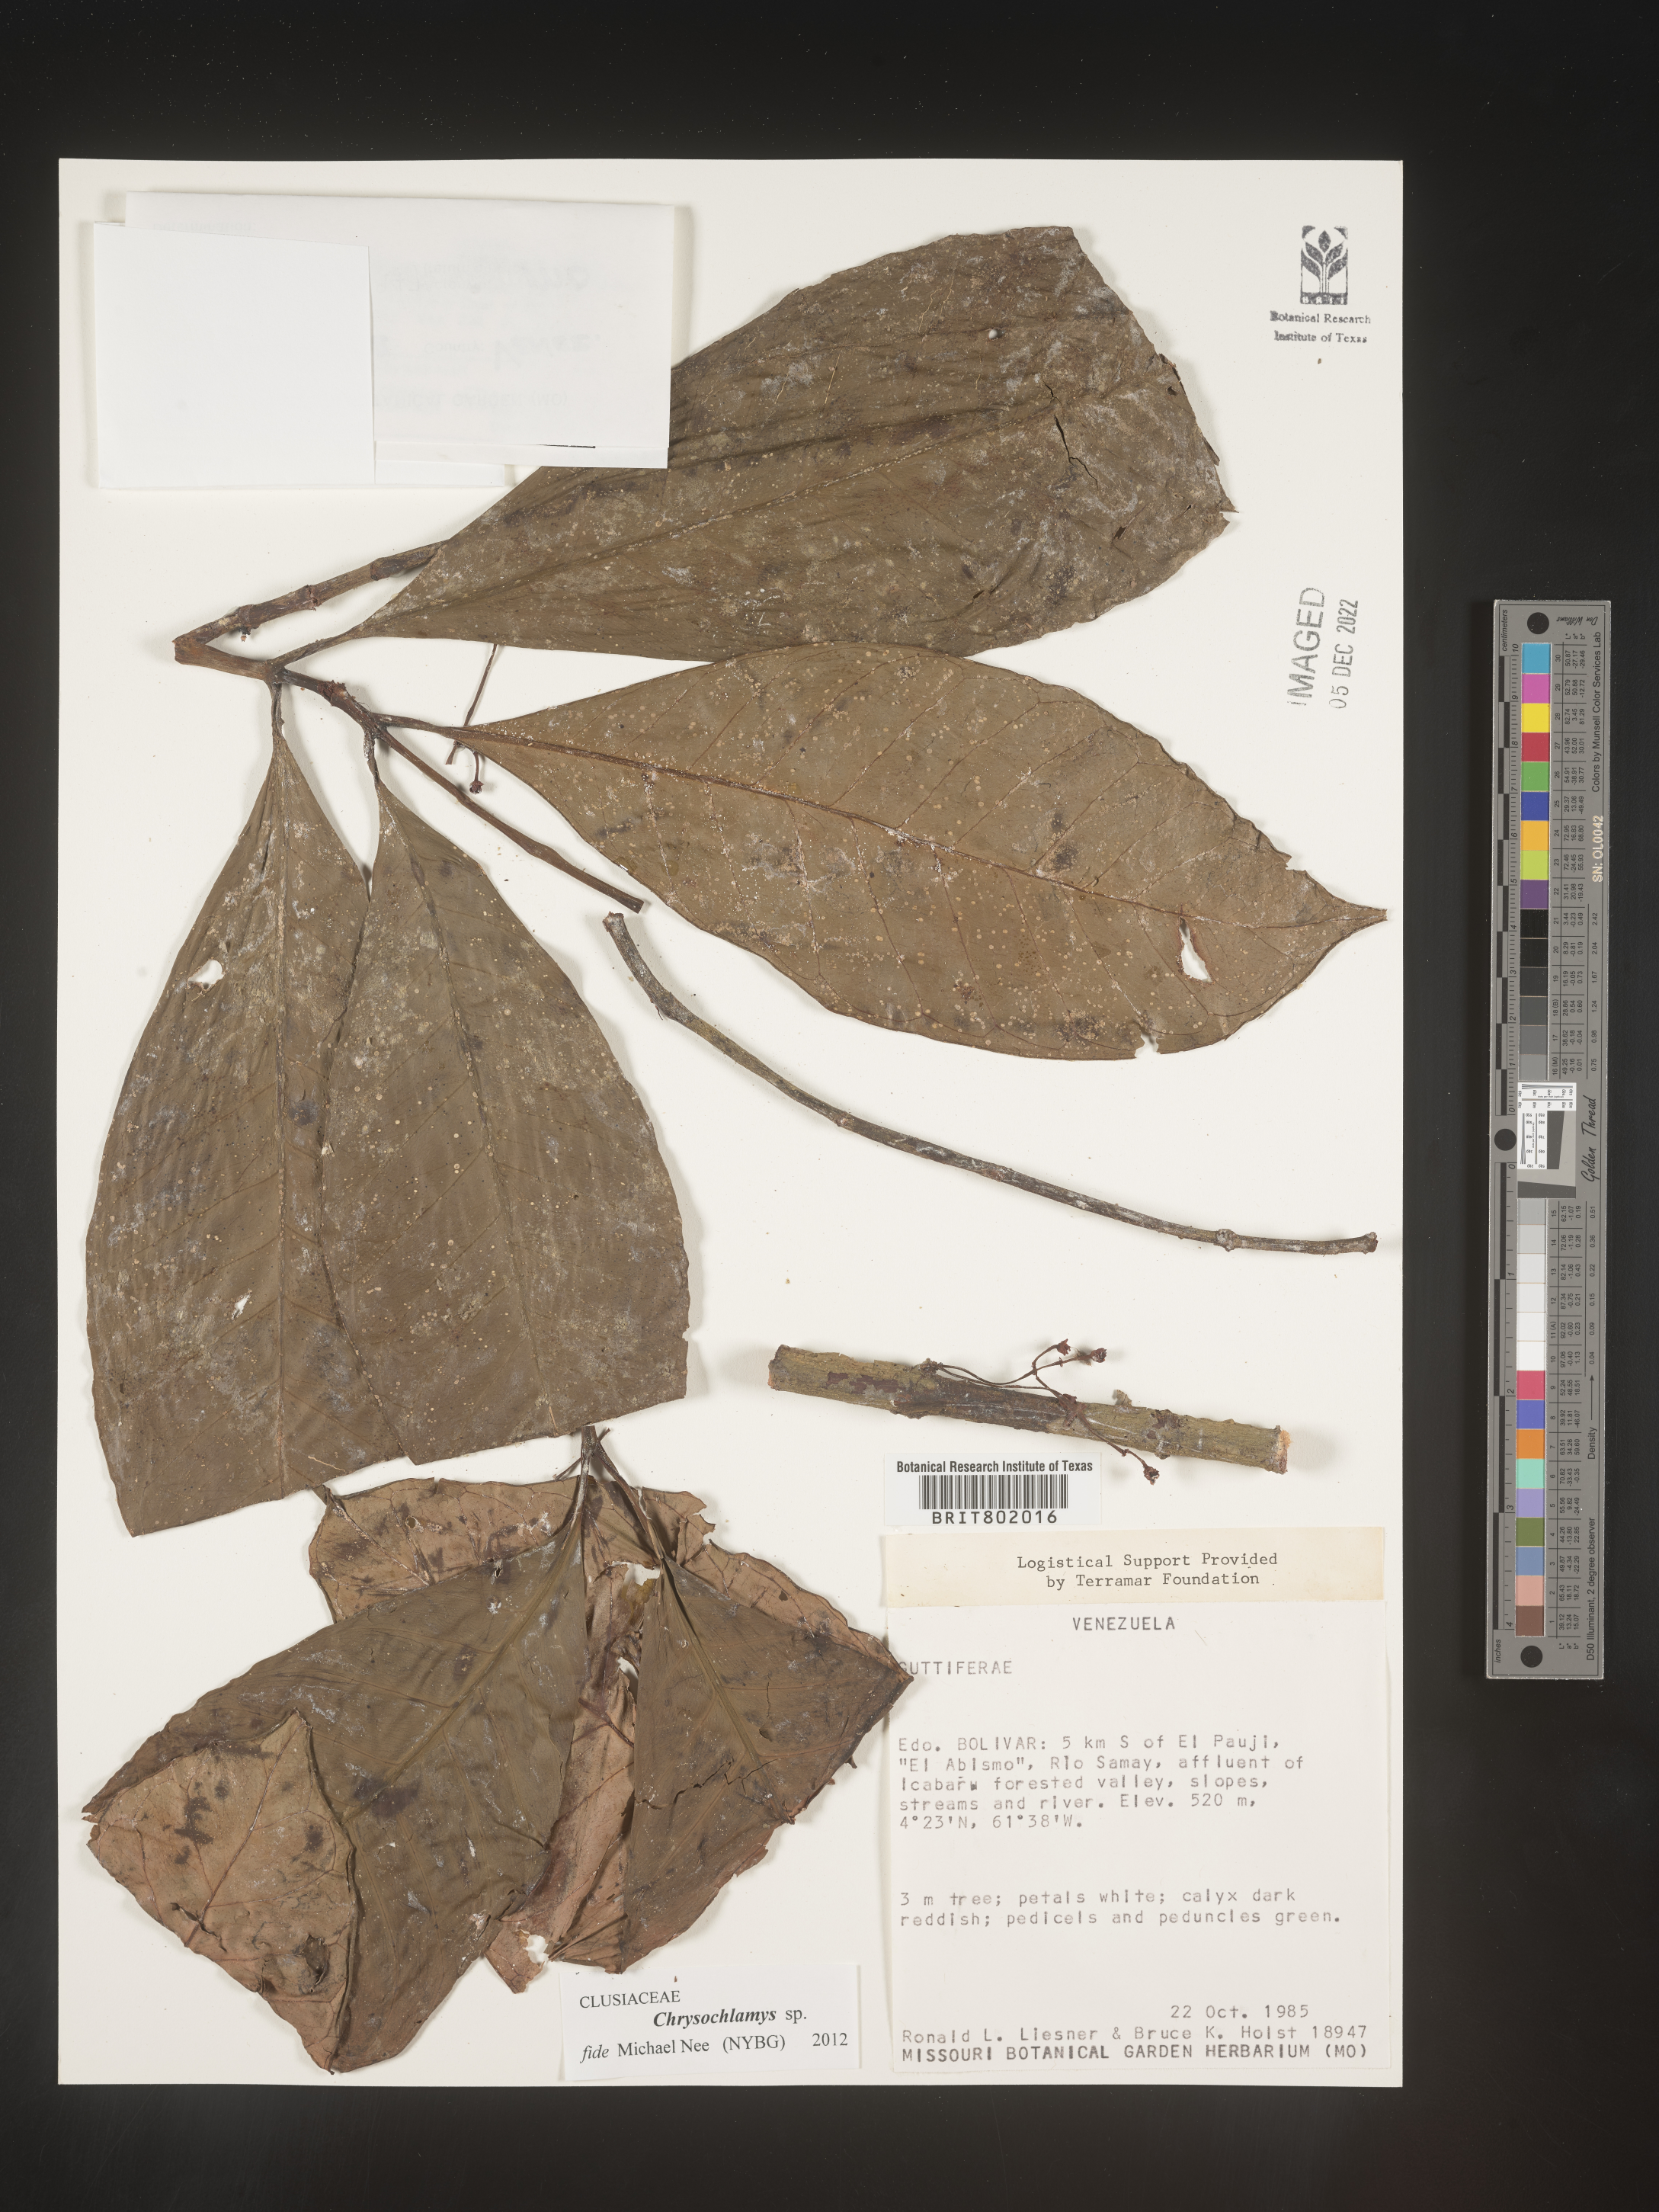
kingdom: Plantae
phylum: Tracheophyta
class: Magnoliopsida
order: Malpighiales
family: Clusiaceae
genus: Chrysochlamys
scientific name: Chrysochlamys
